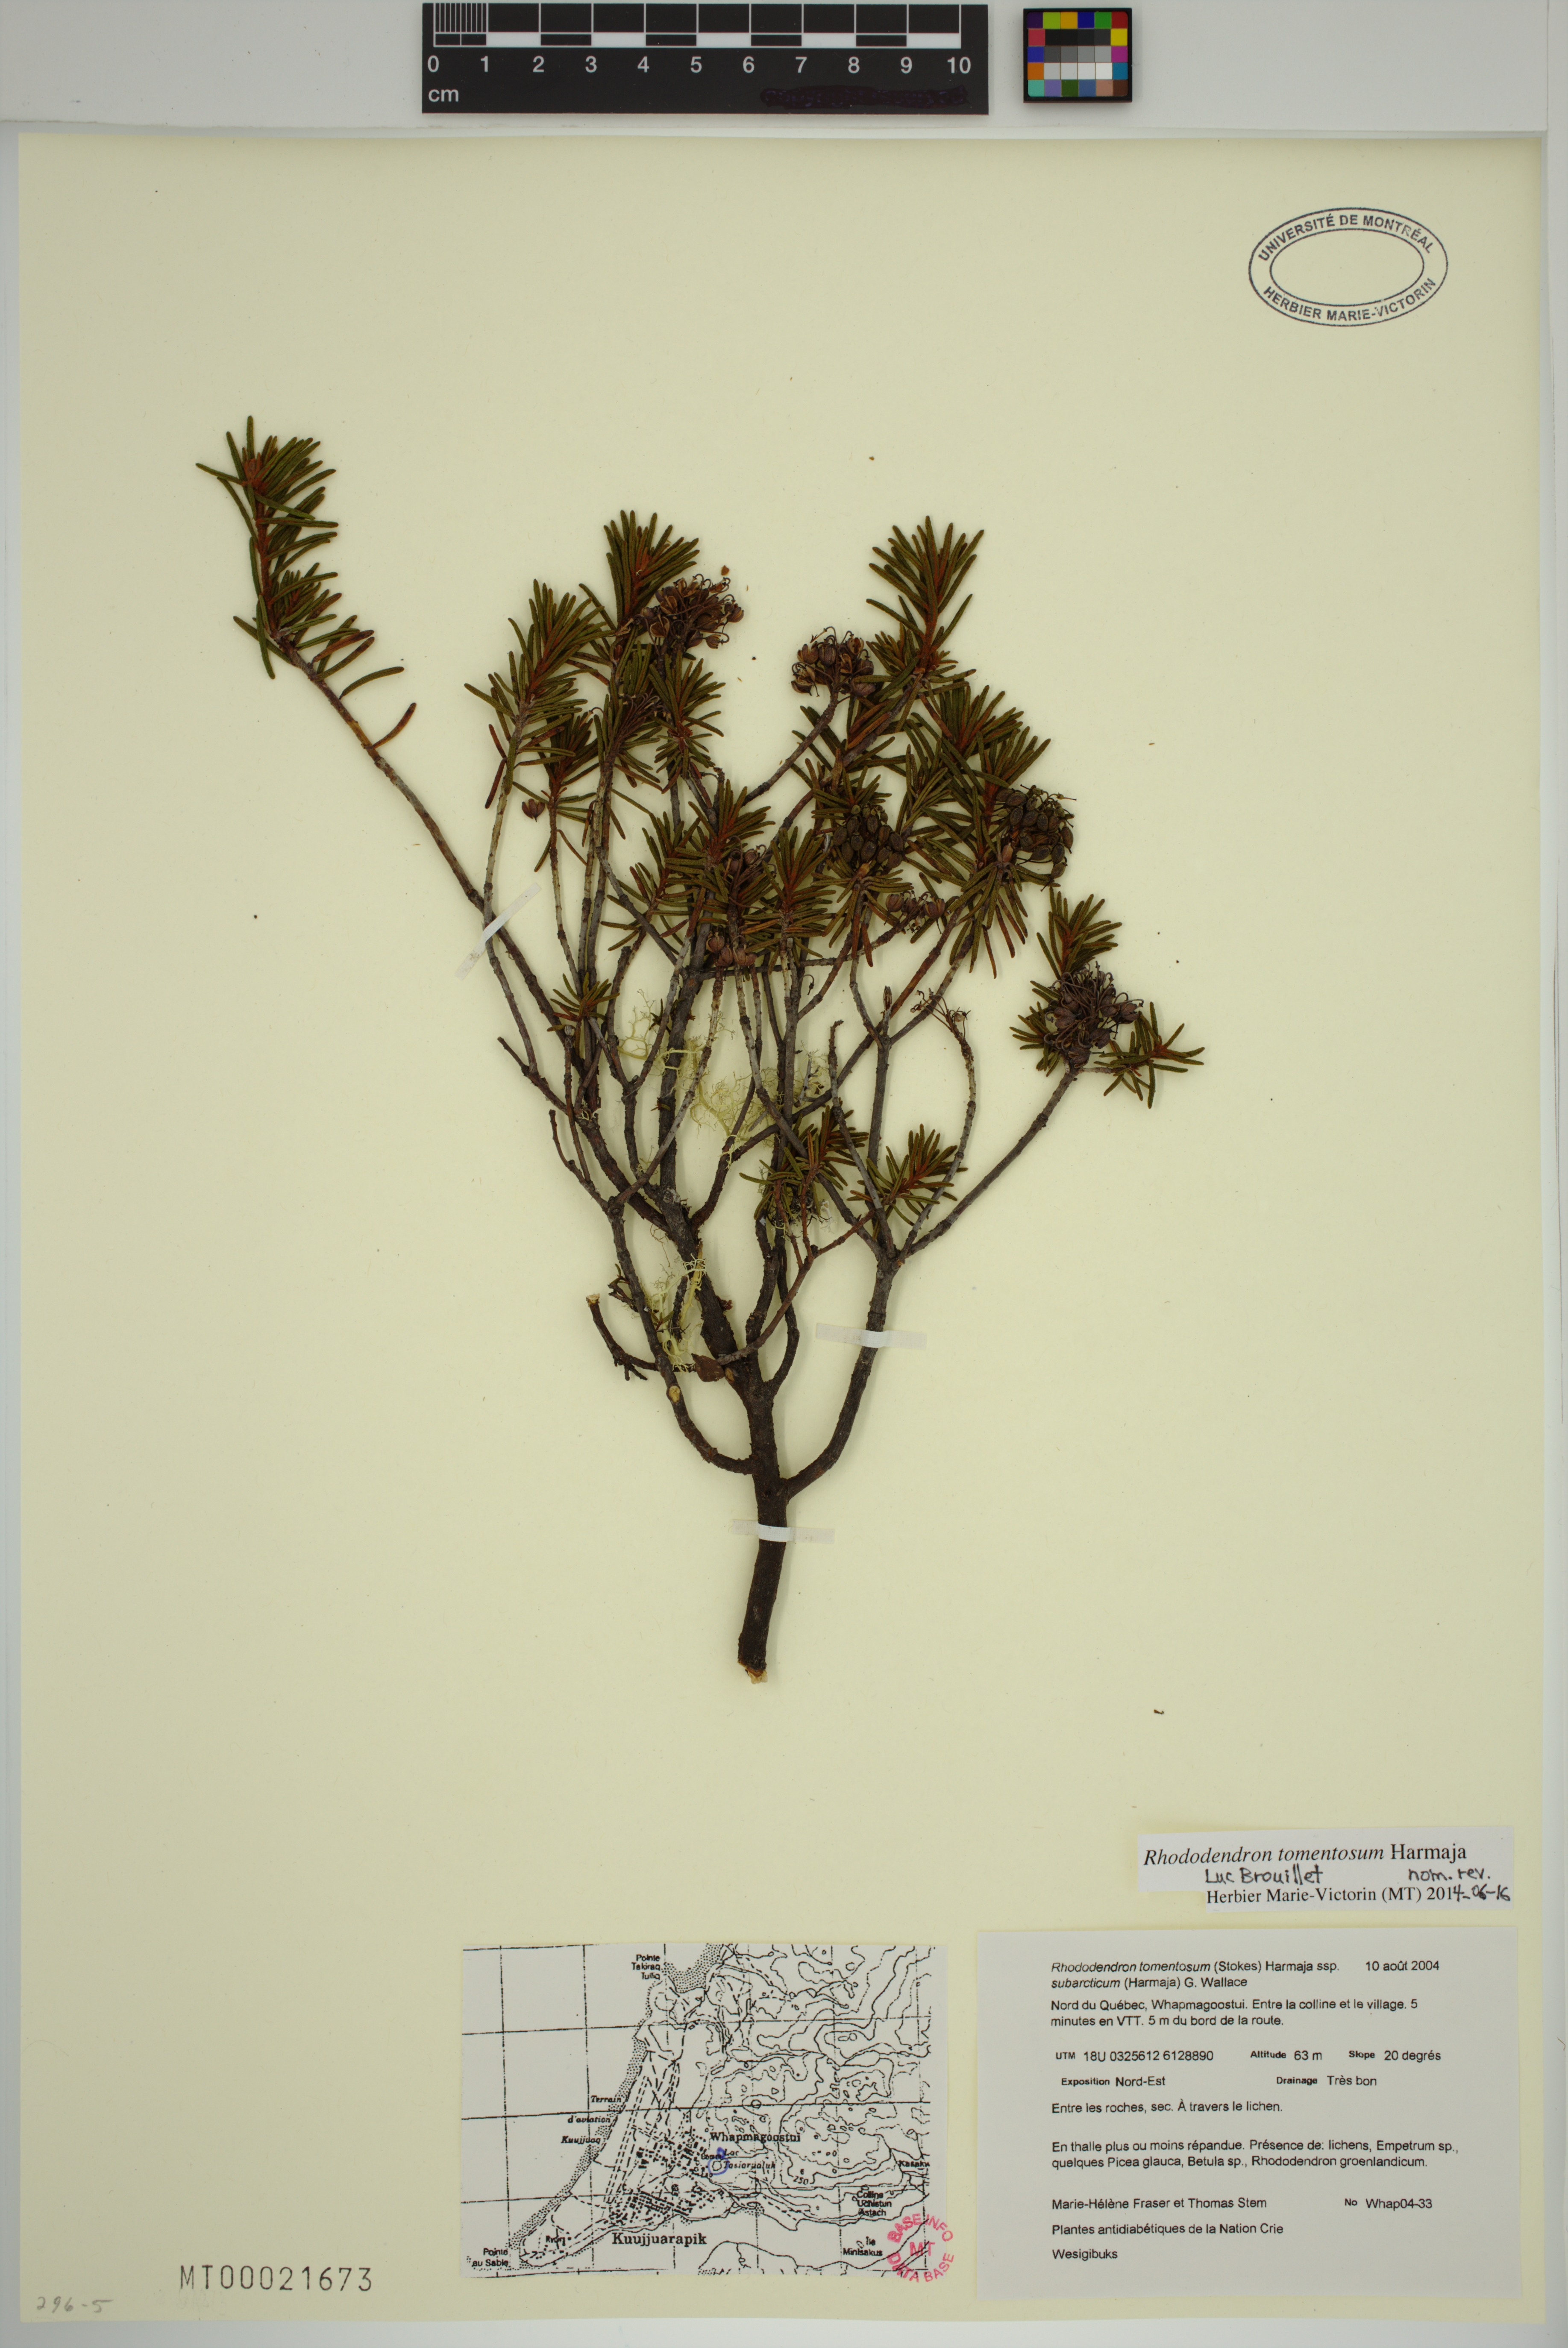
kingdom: Plantae
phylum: Tracheophyta
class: Magnoliopsida
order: Ericales
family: Ericaceae
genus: Rhododendron
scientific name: Rhododendron tomentosum
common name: Marsh labrador tea
